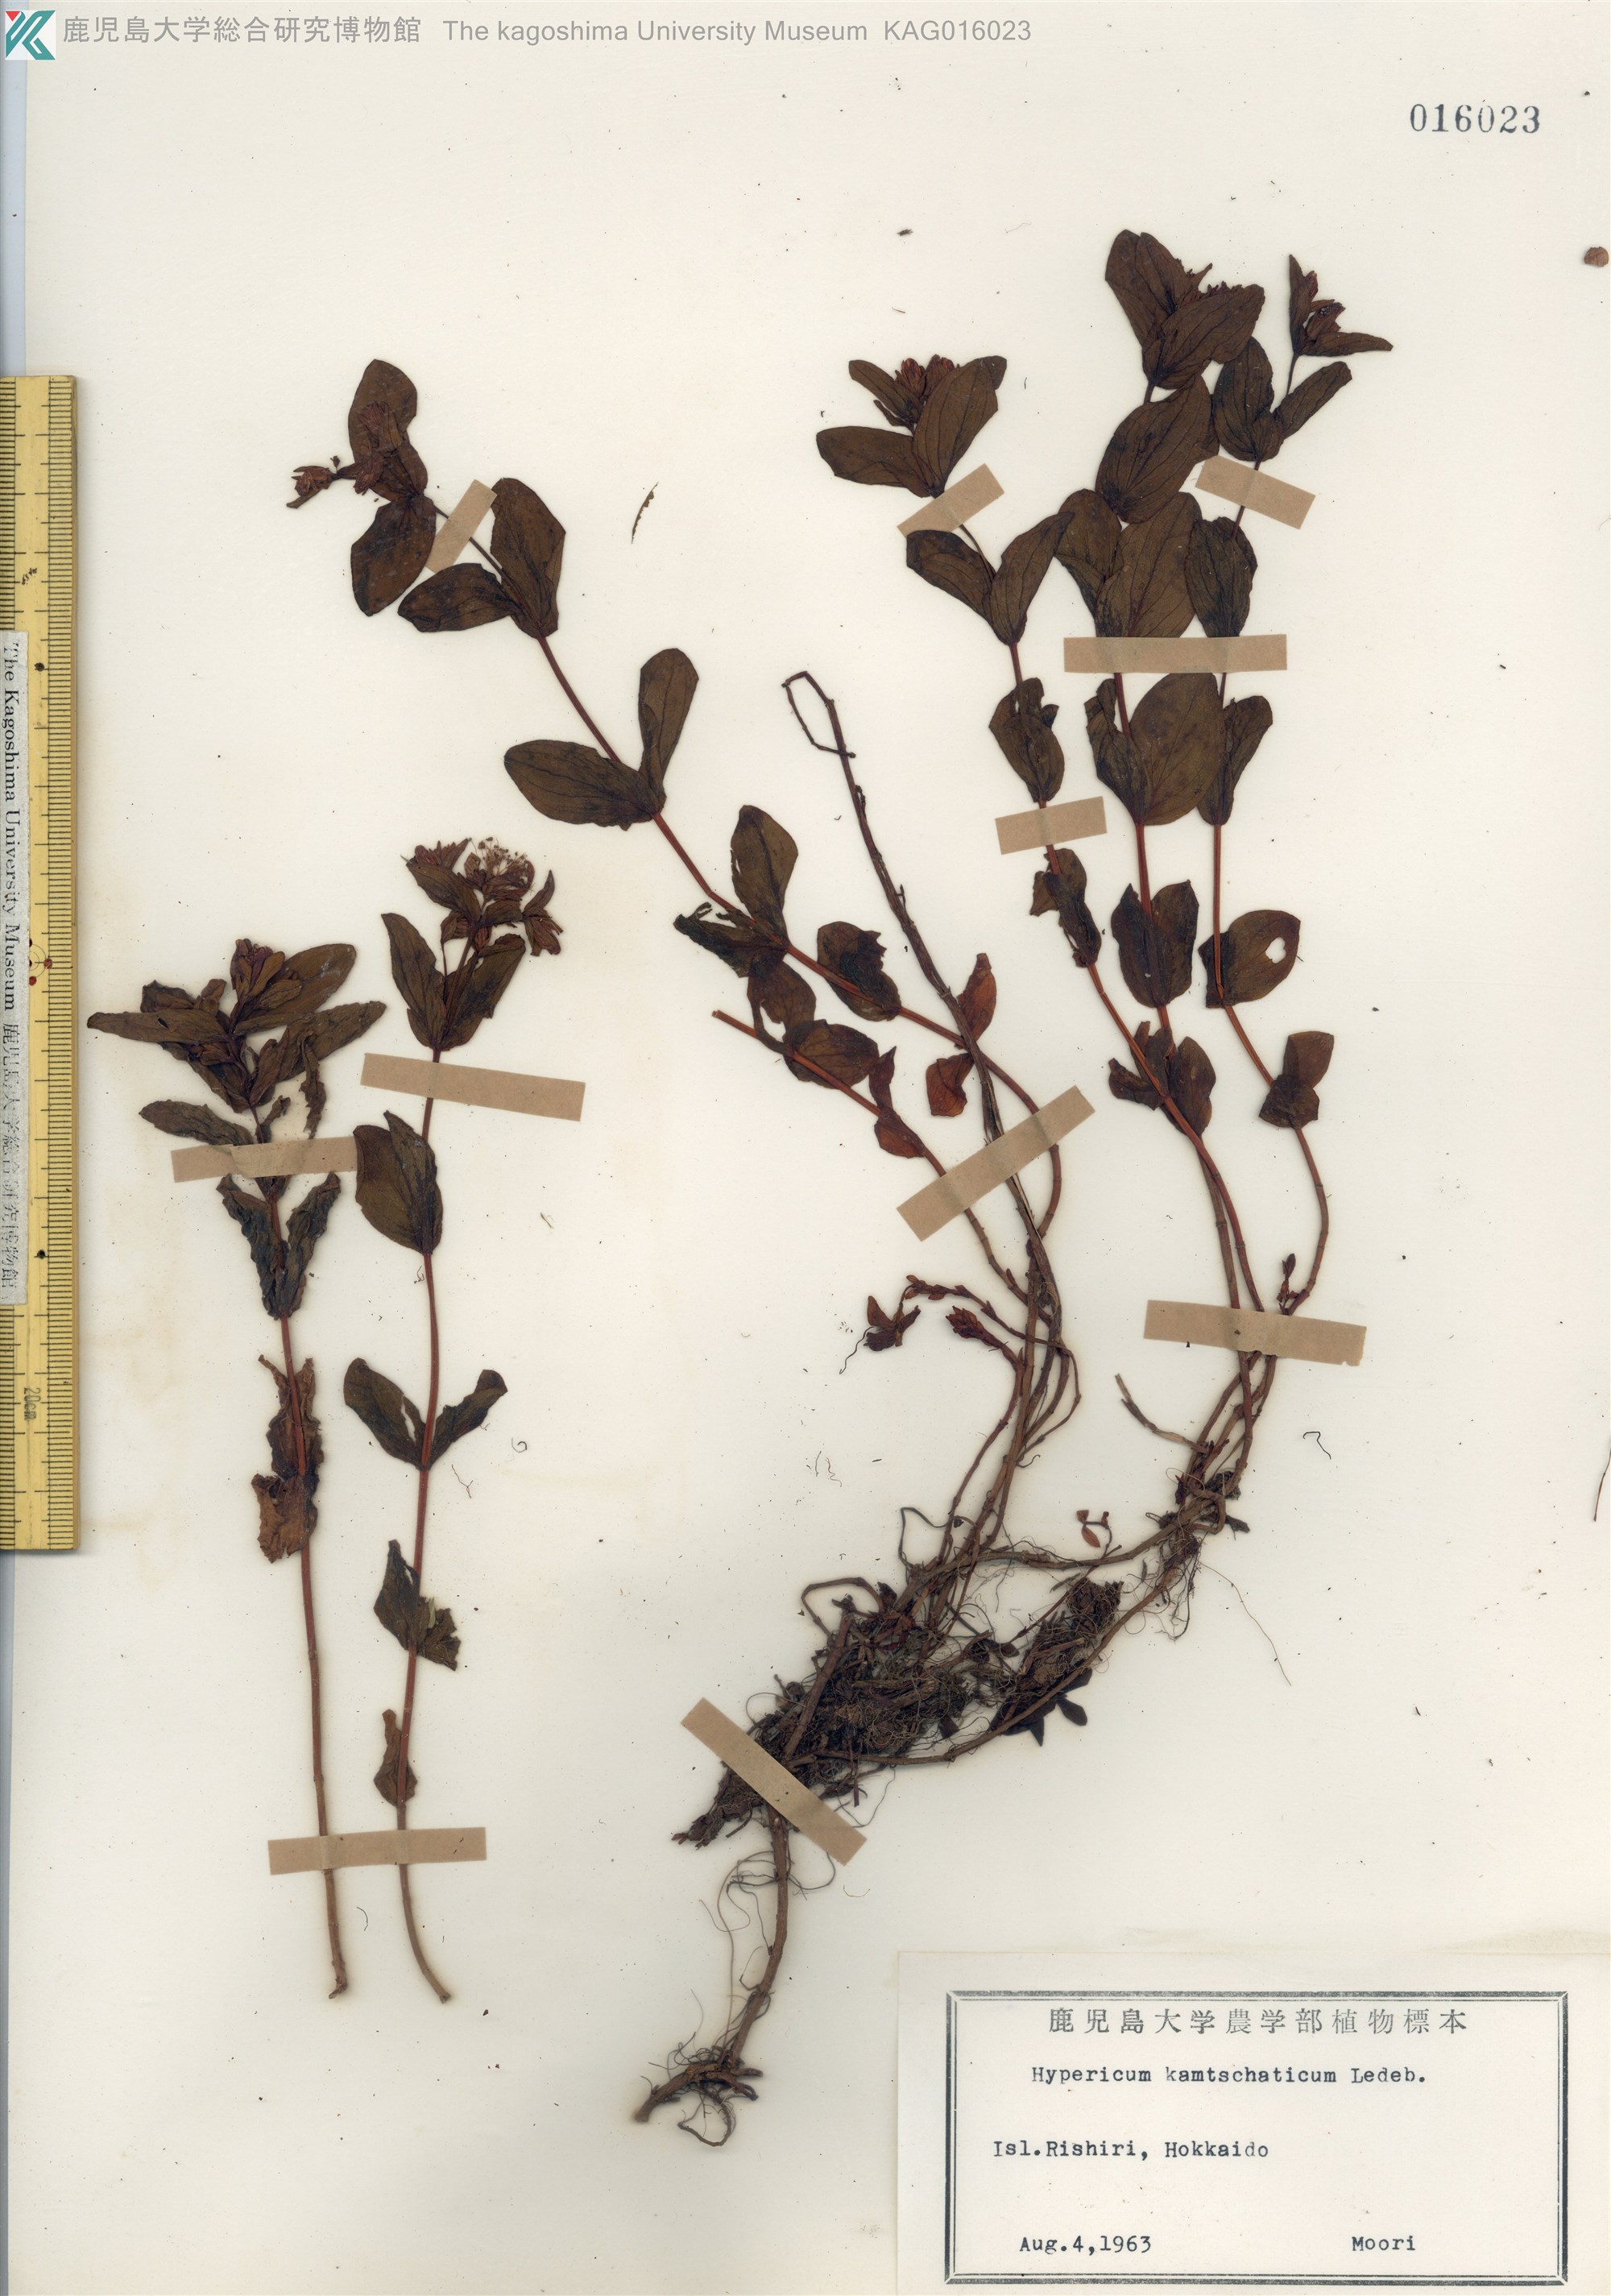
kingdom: Plantae
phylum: Tracheophyta
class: Magnoliopsida
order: Malpighiales
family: Hypericaceae
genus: Hypericum
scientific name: Hypericum kamtschaticum
